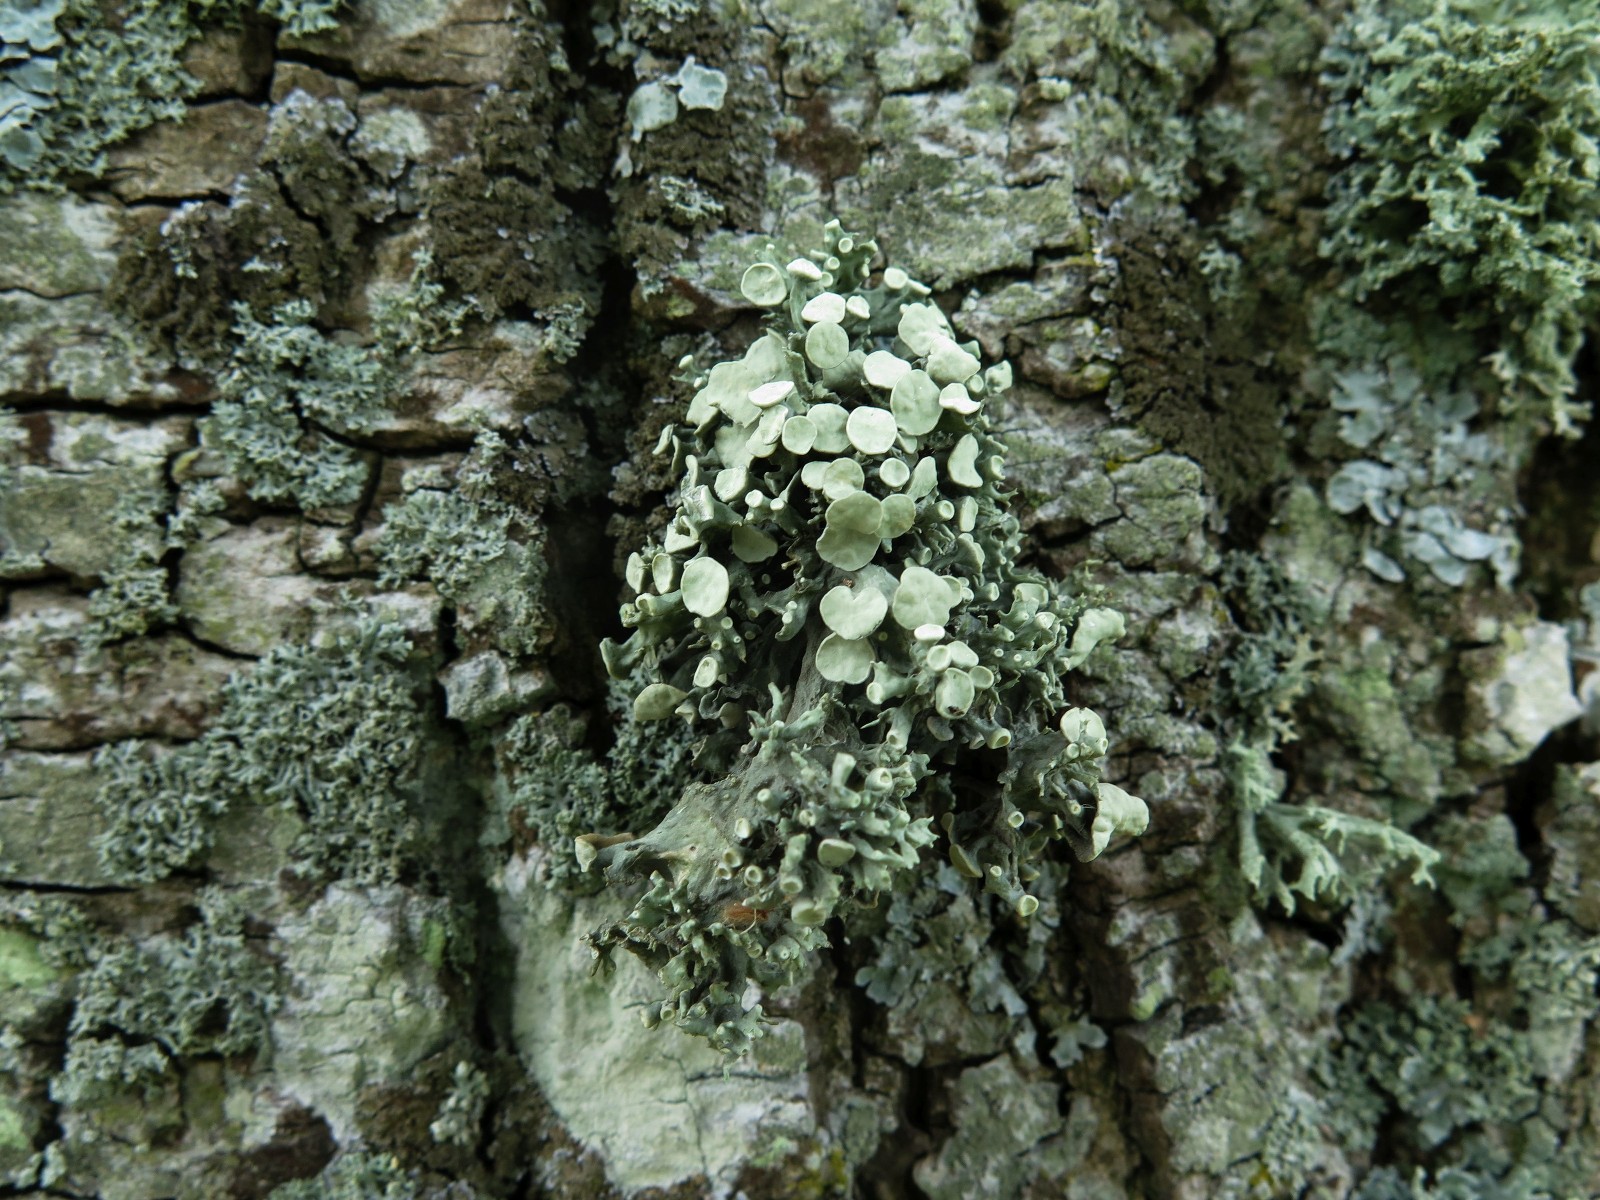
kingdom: Fungi
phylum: Ascomycota
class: Lecanoromycetes
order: Lecanorales
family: Ramalinaceae
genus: Ramalina
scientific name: Ramalina fastigiata
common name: tue-grenlav
